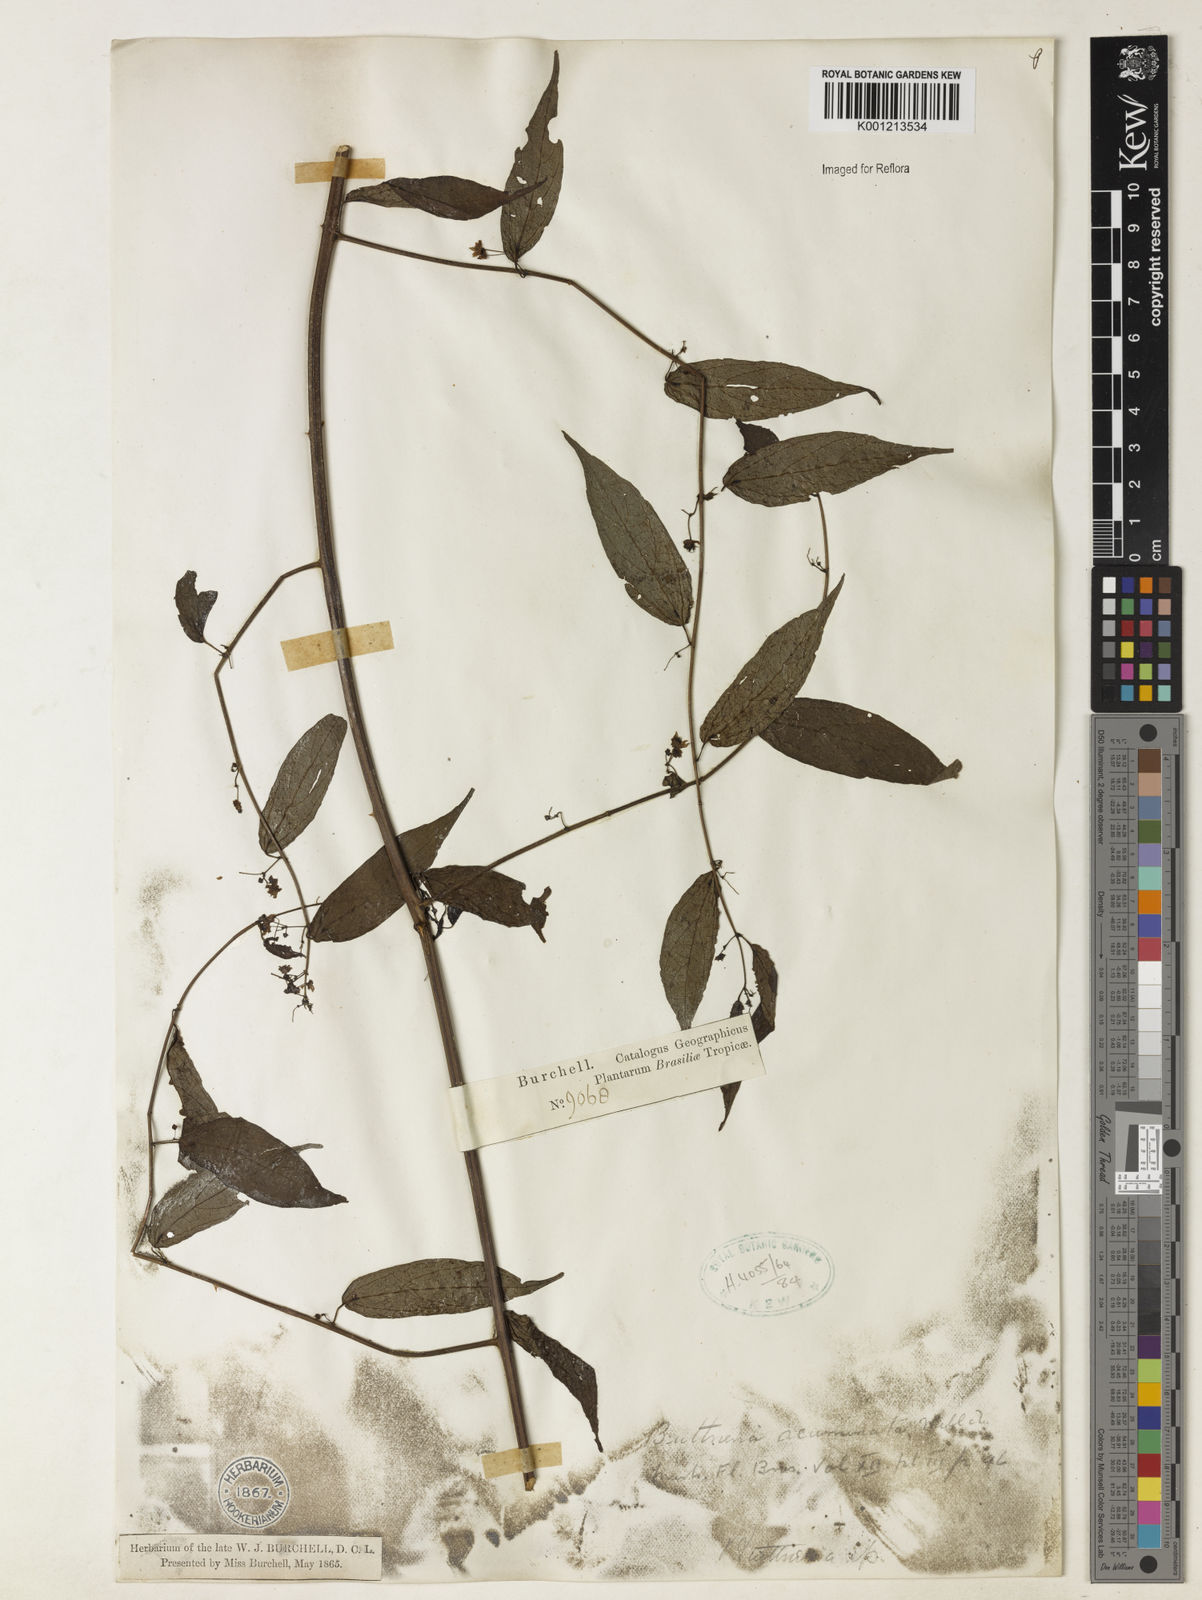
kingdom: Plantae
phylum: Tracheophyta
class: Magnoliopsida
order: Malvales
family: Malvaceae
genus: Byttneria
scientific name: Byttneria aculeata
